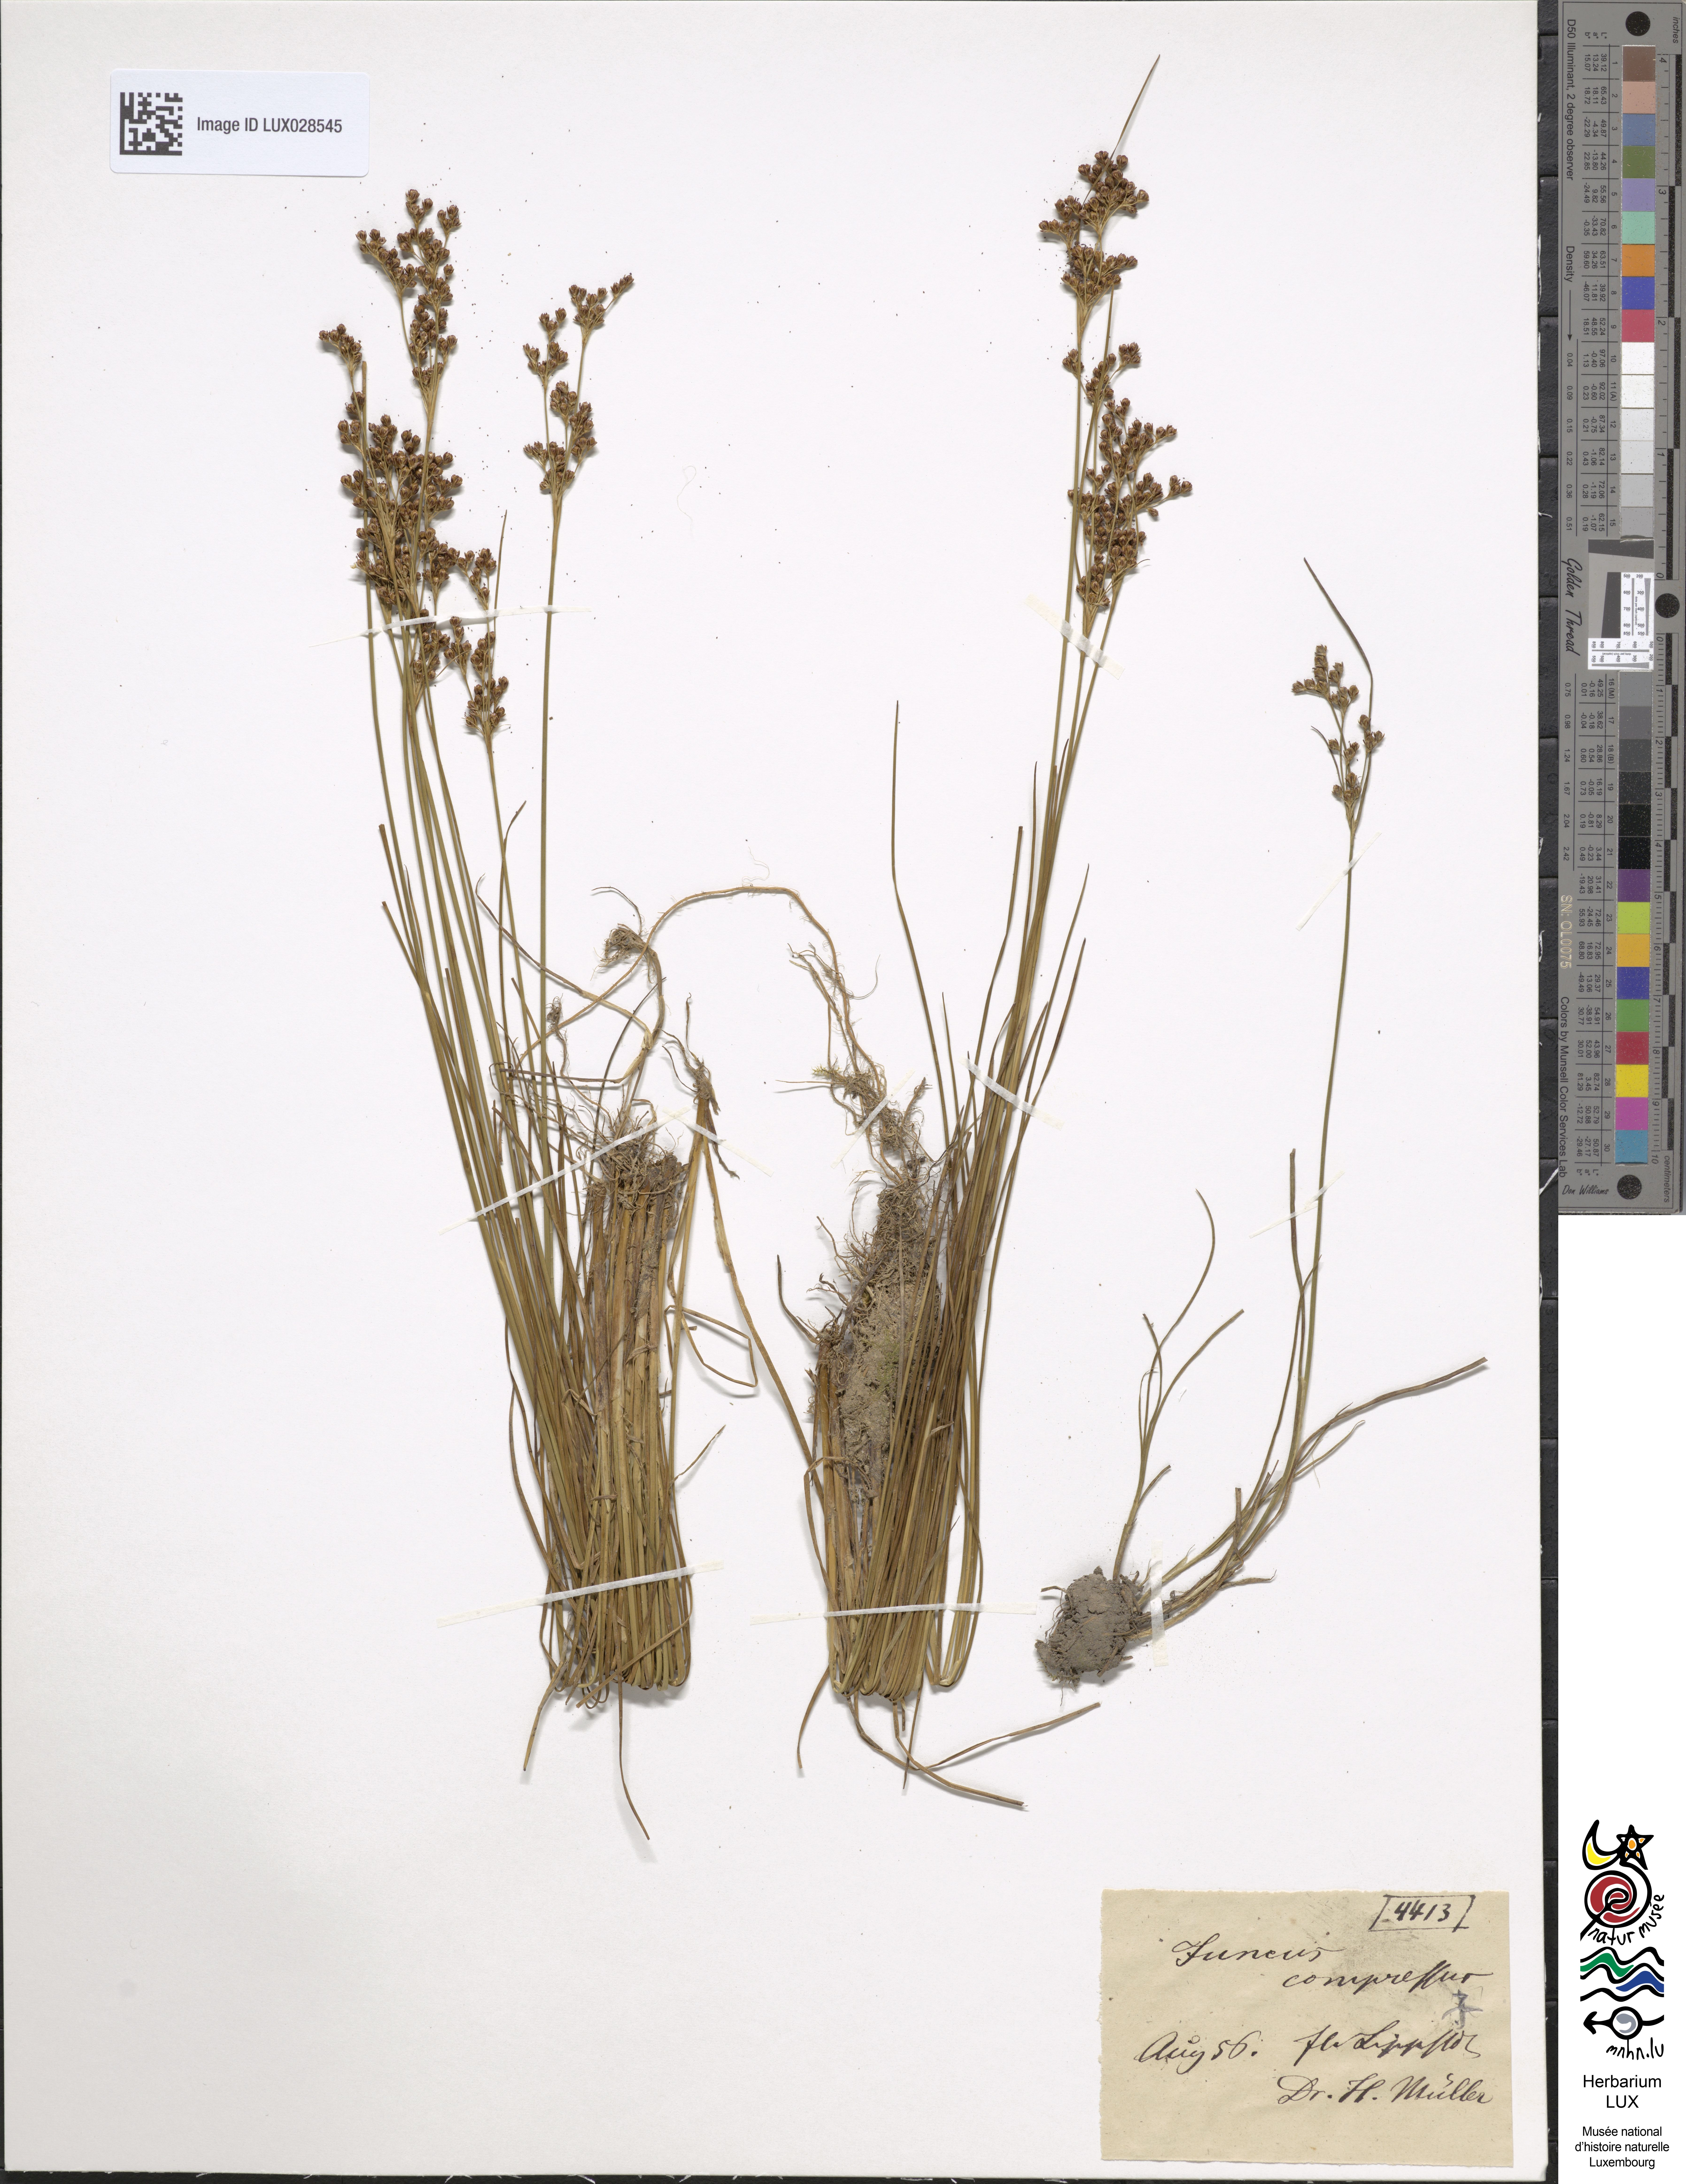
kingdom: Plantae
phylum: Tracheophyta
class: Liliopsida
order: Poales
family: Juncaceae
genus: Juncus
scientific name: Juncus compressus
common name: Round-fruited rush
